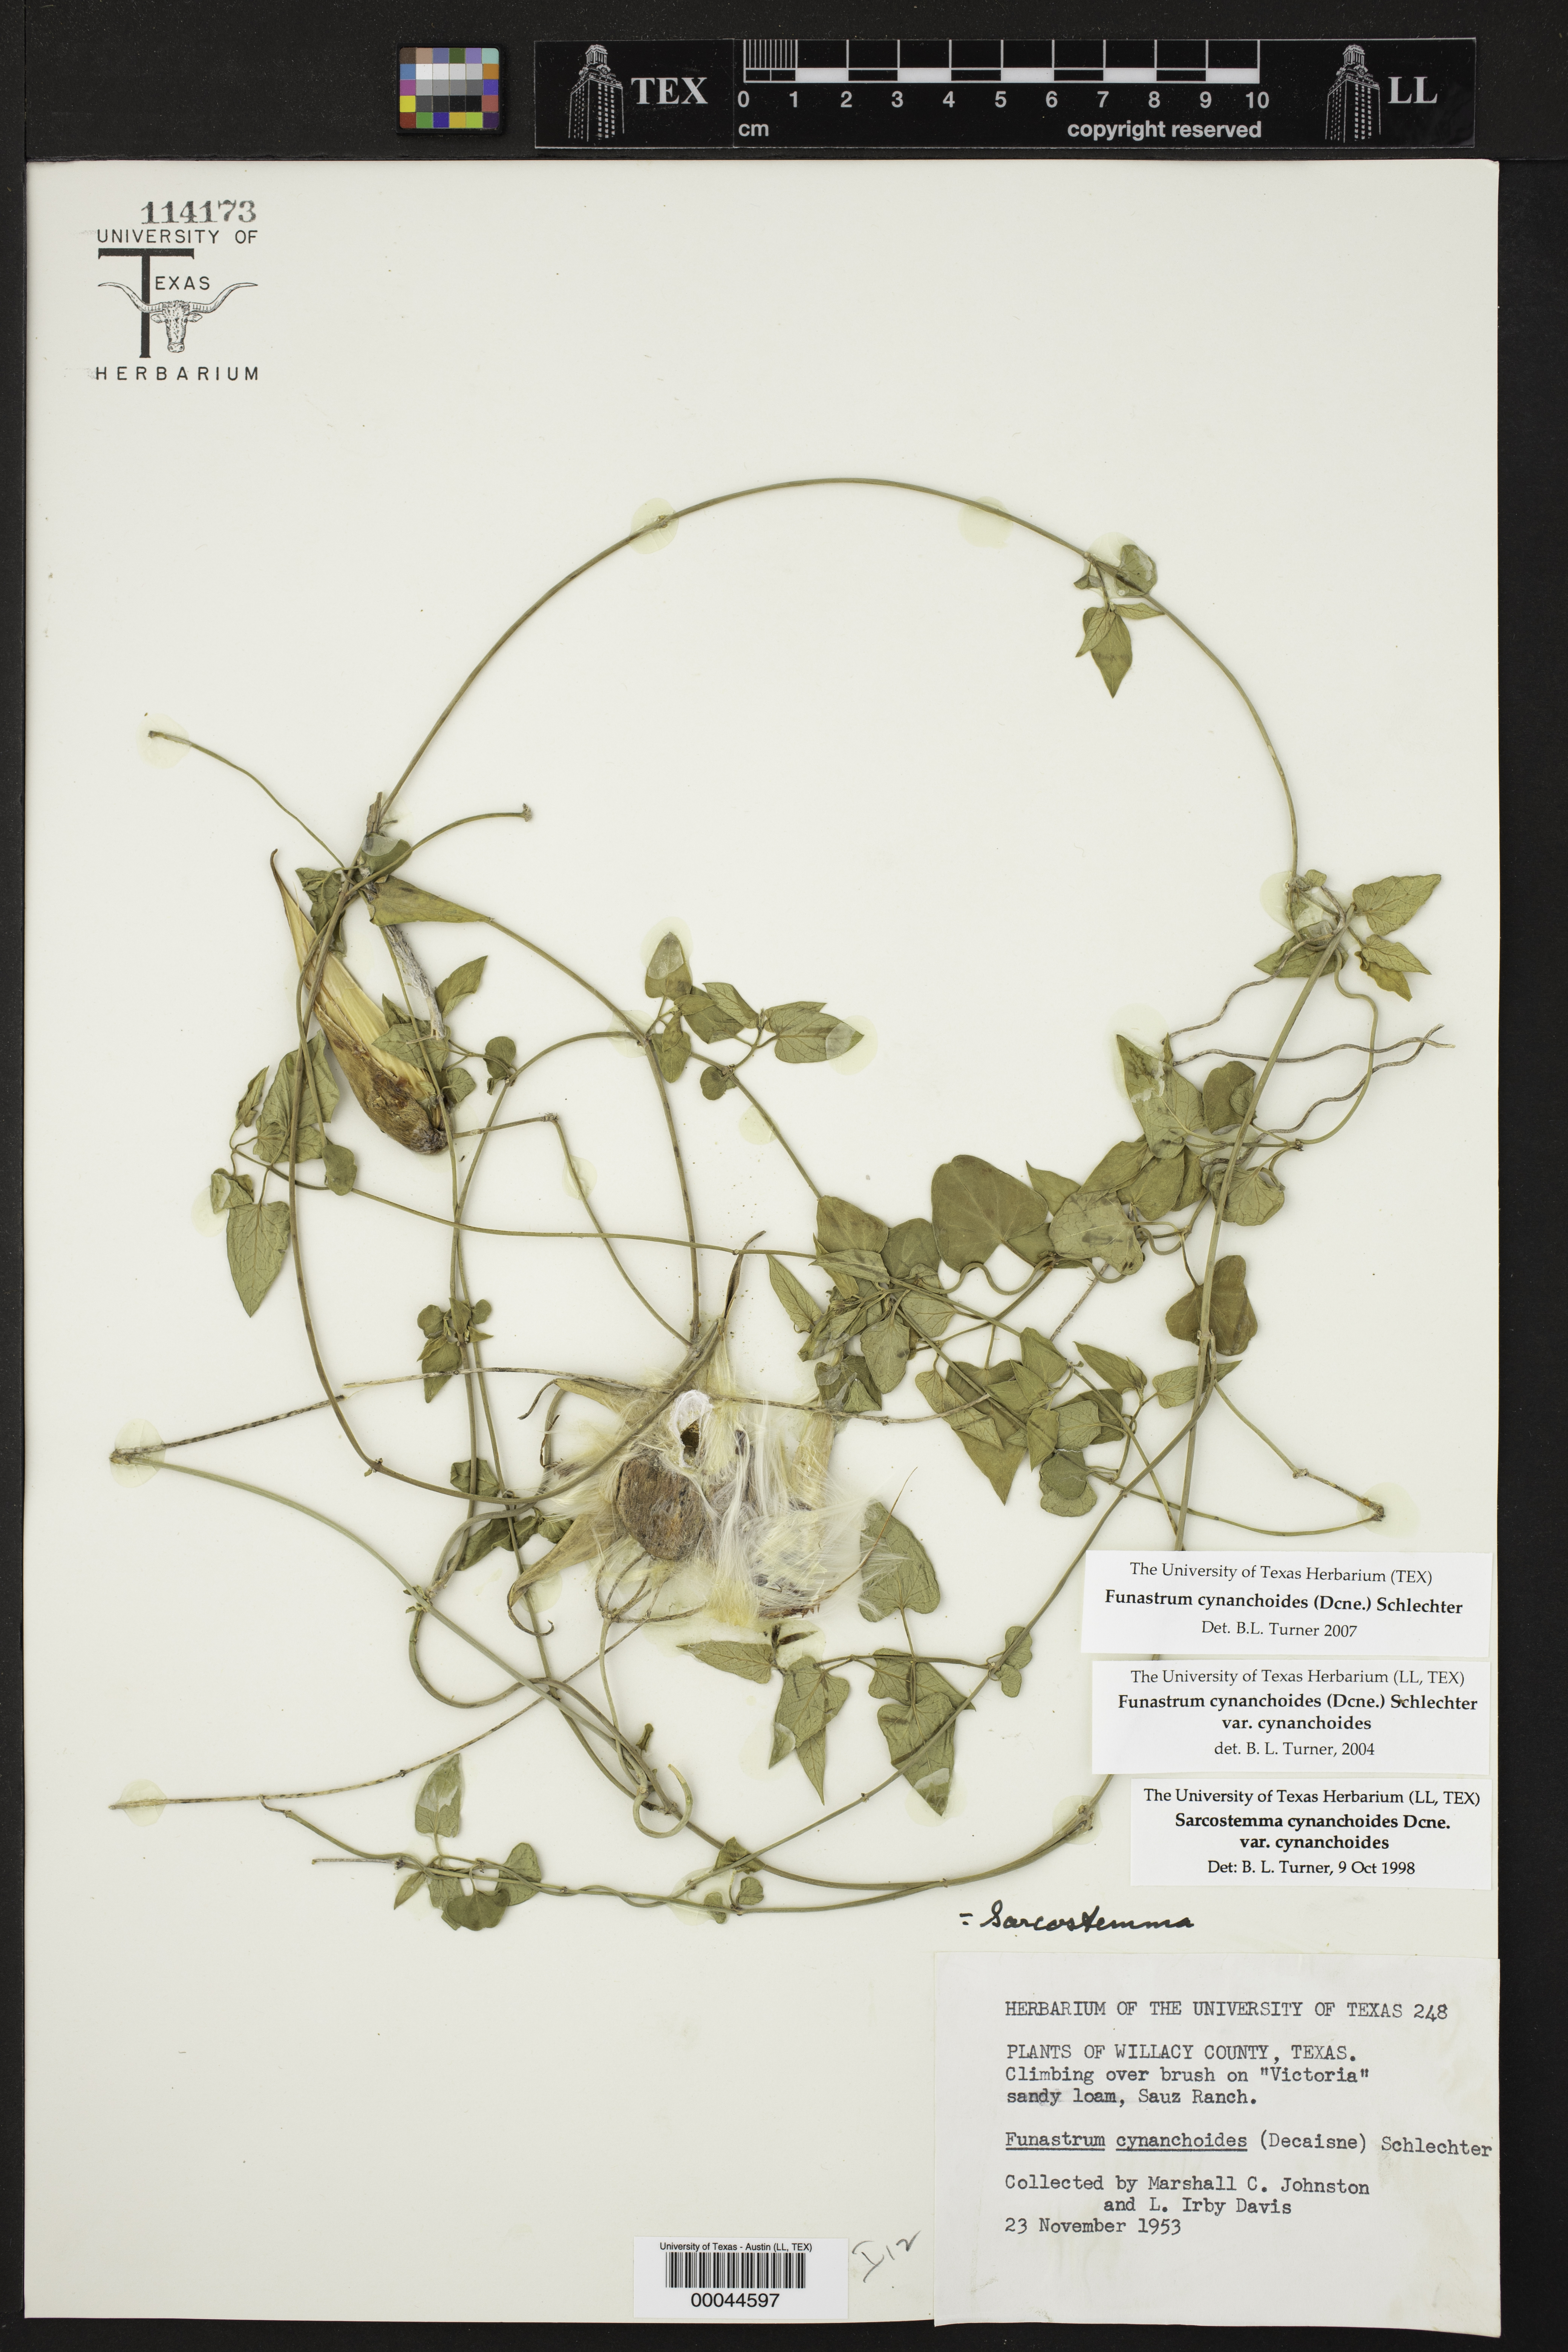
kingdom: Plantae
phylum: Tracheophyta
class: Magnoliopsida
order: Gentianales
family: Apocynaceae
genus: Funastrum
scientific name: Funastrum cynanchoides
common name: Climbing-milkweed
